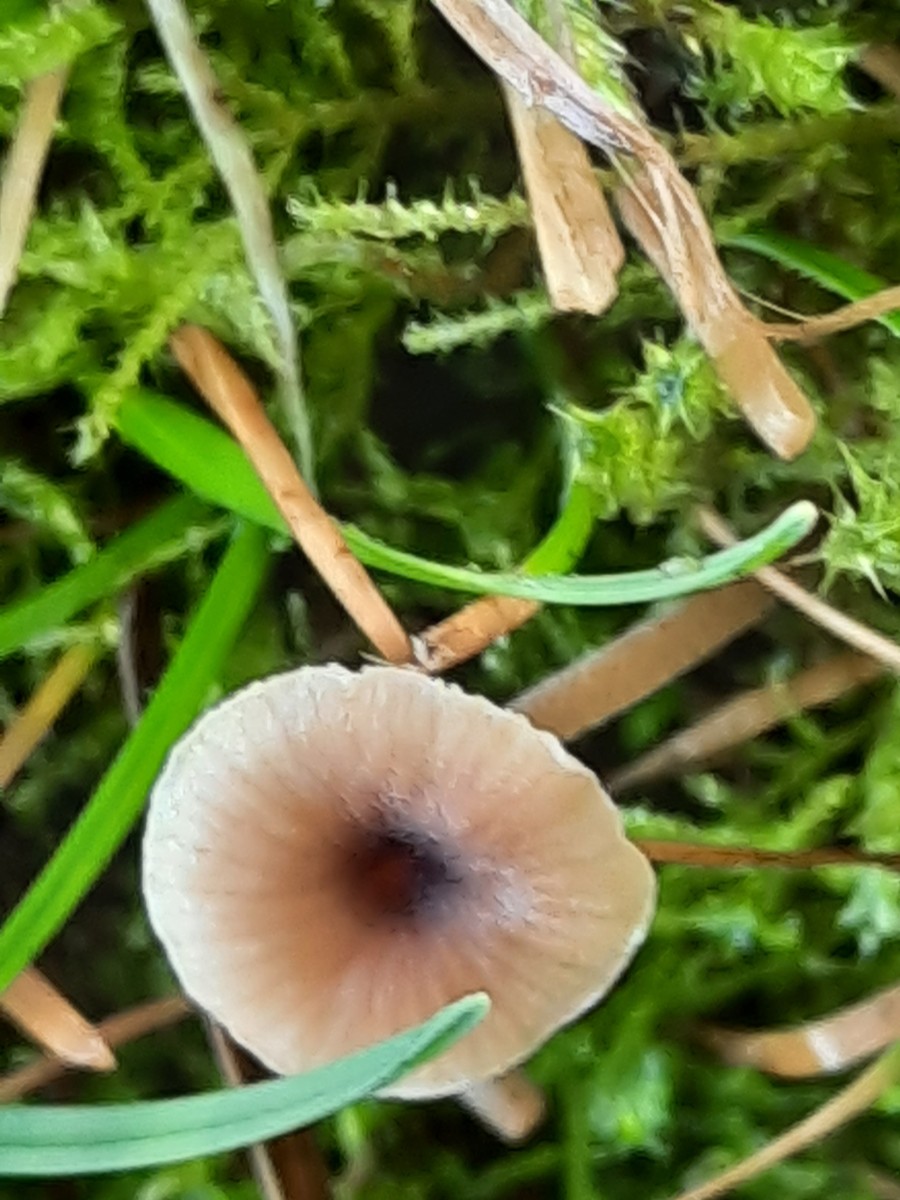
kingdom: Fungi
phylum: Basidiomycota
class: Agaricomycetes
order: Hymenochaetales
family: Rickenellaceae
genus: Rickenella
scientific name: Rickenella swartzii
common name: finstokket mosnavlehat
